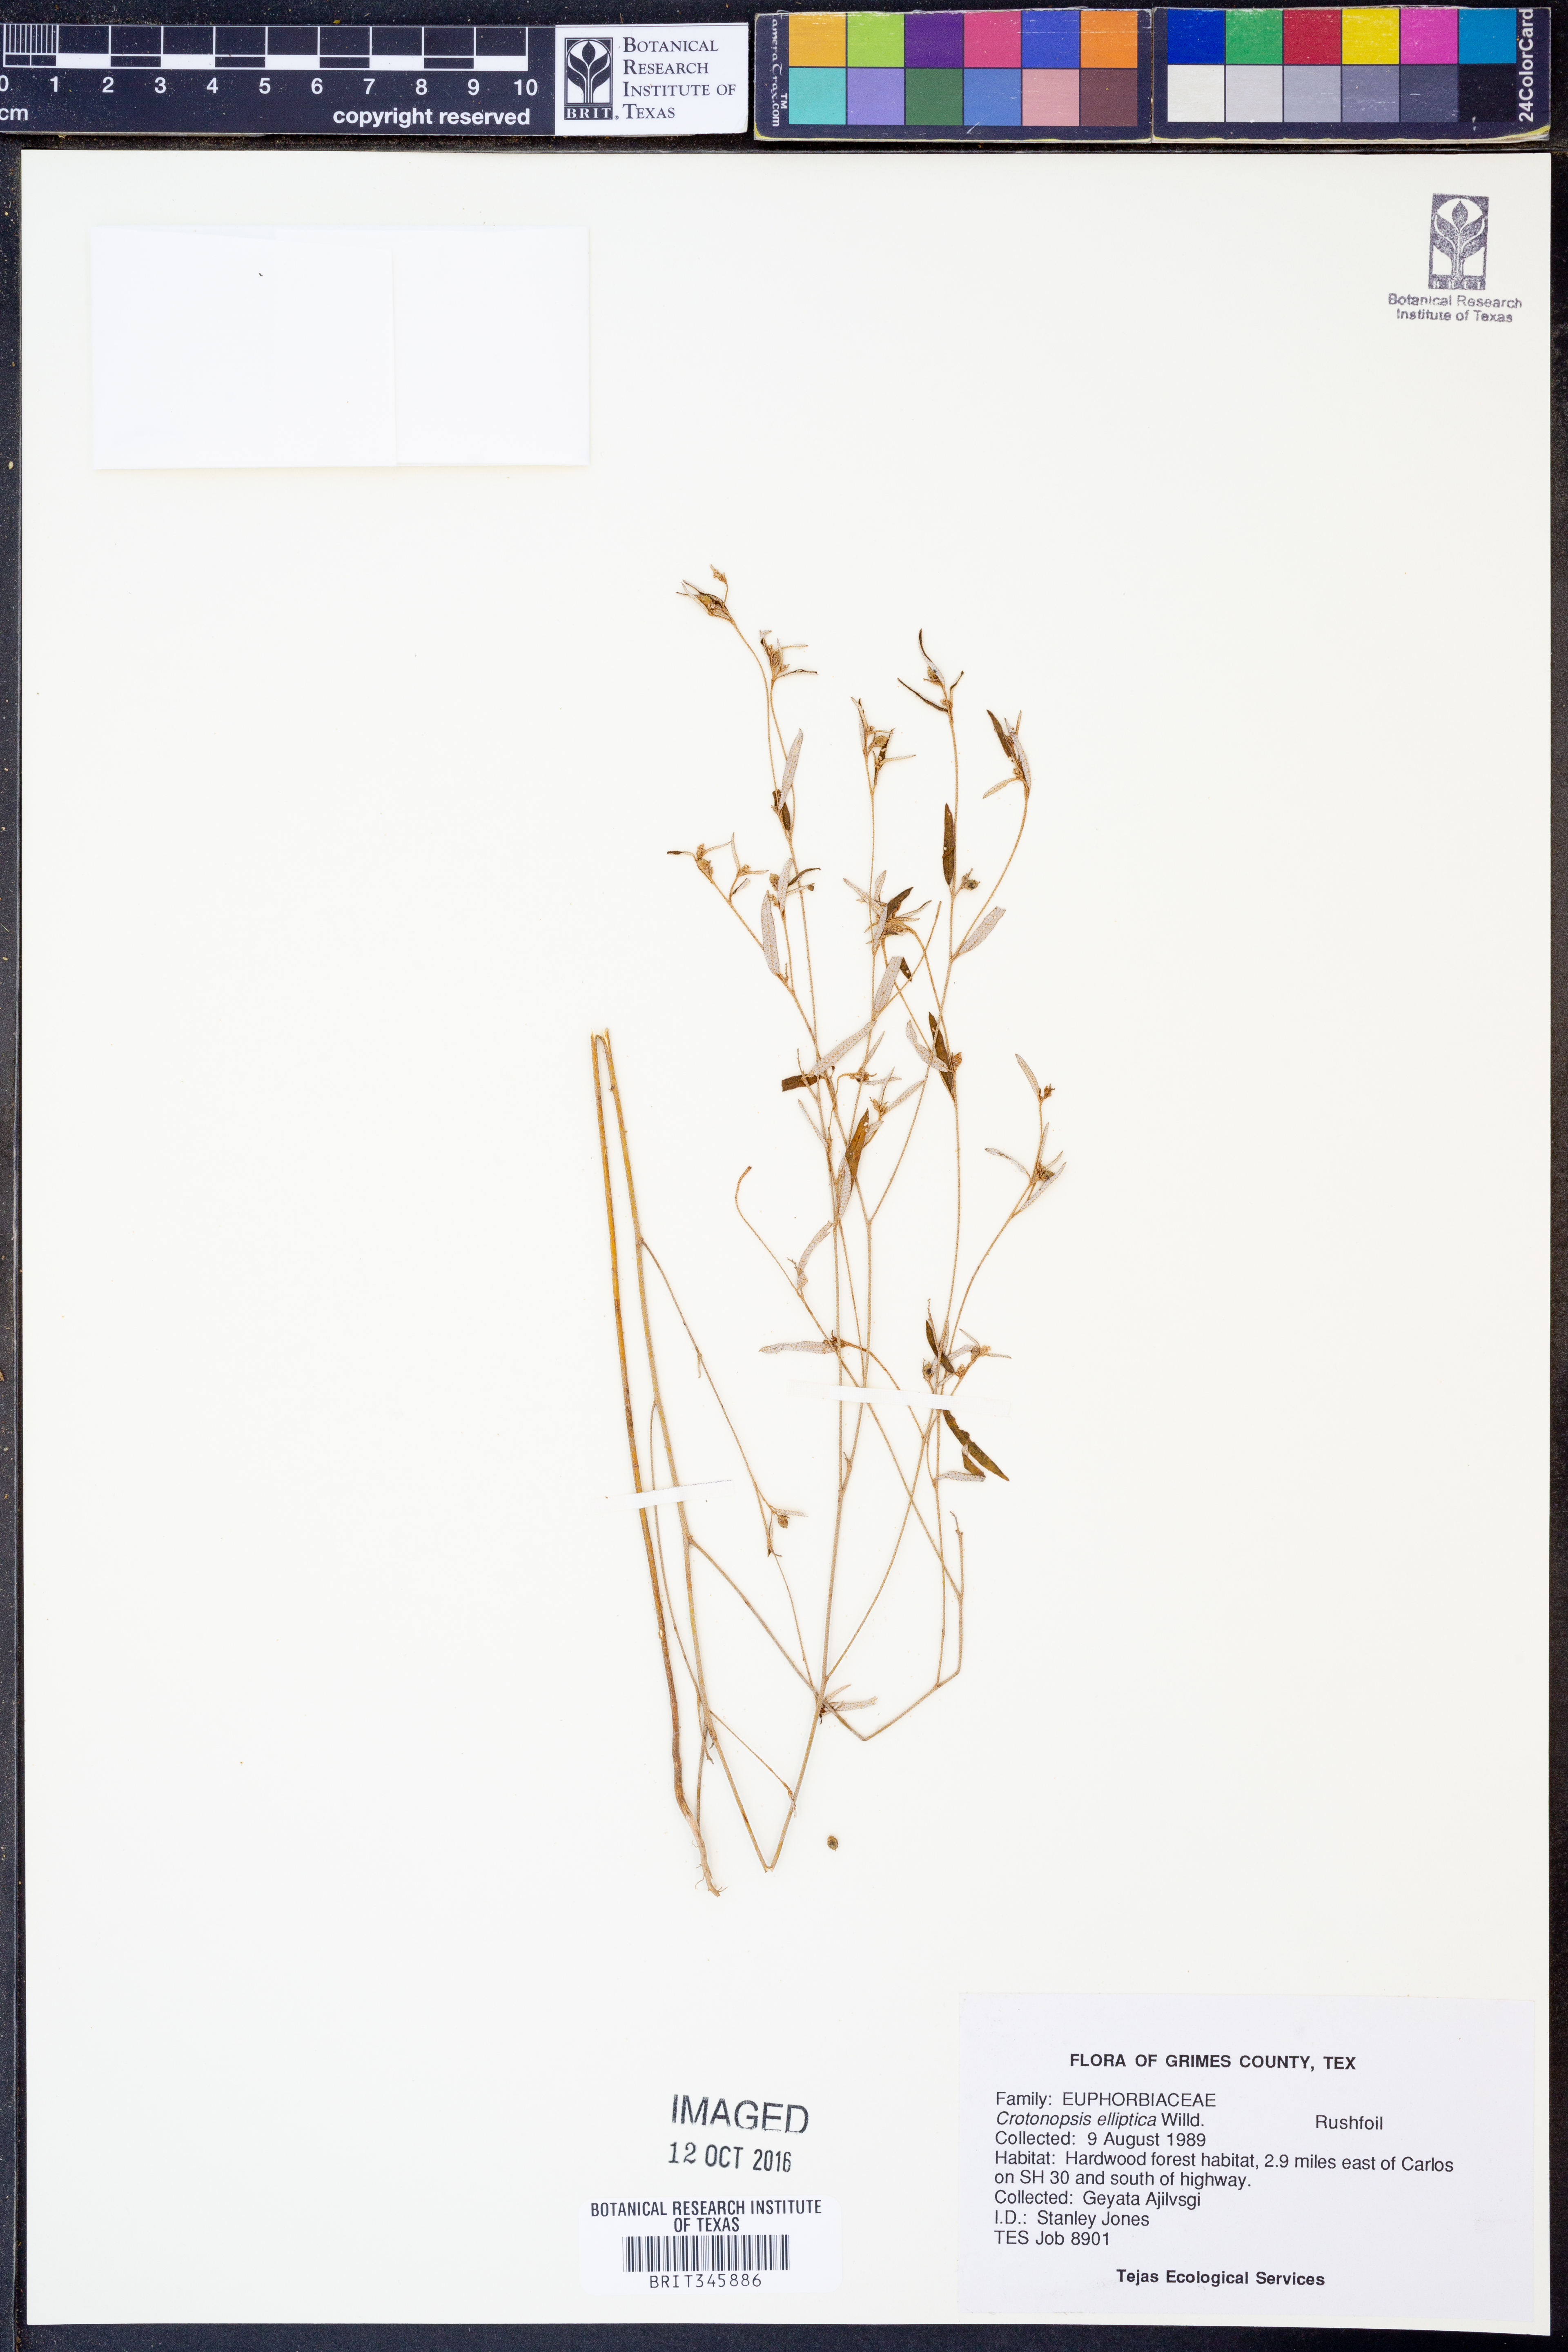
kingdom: Plantae
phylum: Tracheophyta
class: Magnoliopsida
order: Malpighiales
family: Euphorbiaceae
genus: Croton
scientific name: Croton michauxii
